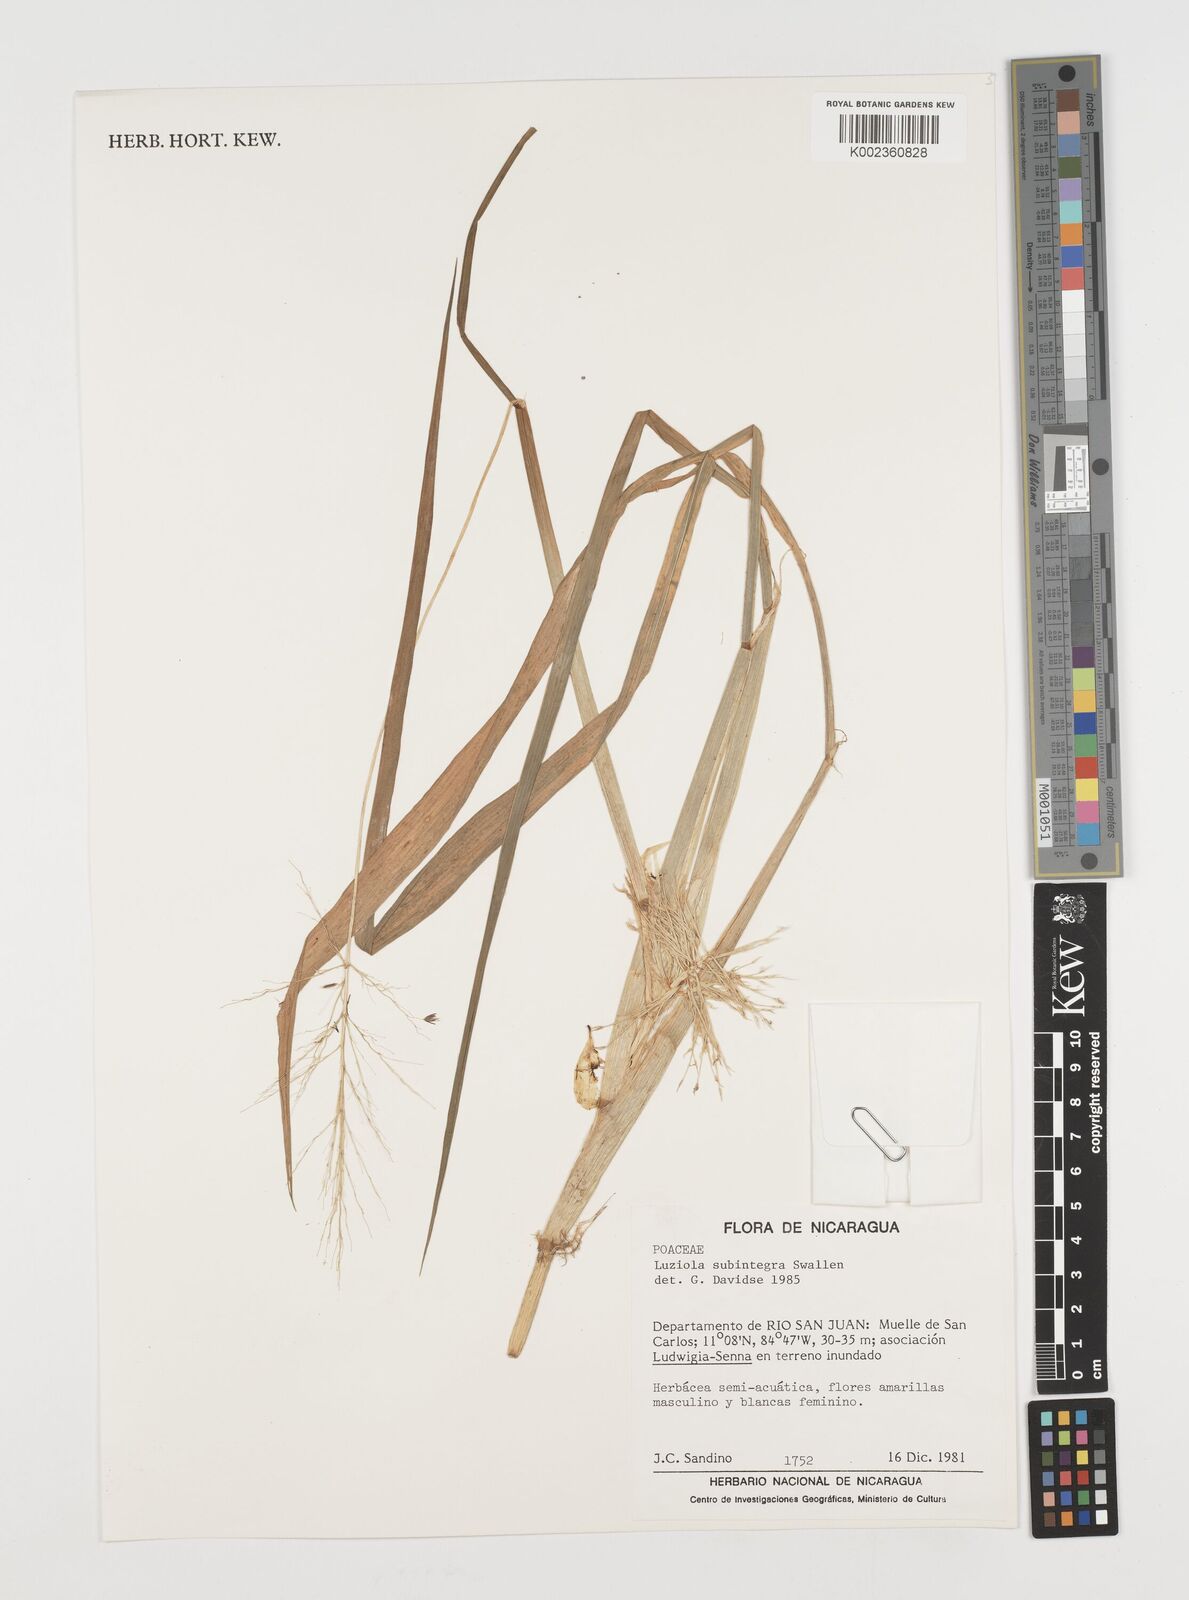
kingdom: Plantae
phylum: Tracheophyta
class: Liliopsida
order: Poales
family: Poaceae
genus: Luziola
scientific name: Luziola subintegra
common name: Large watergrass
